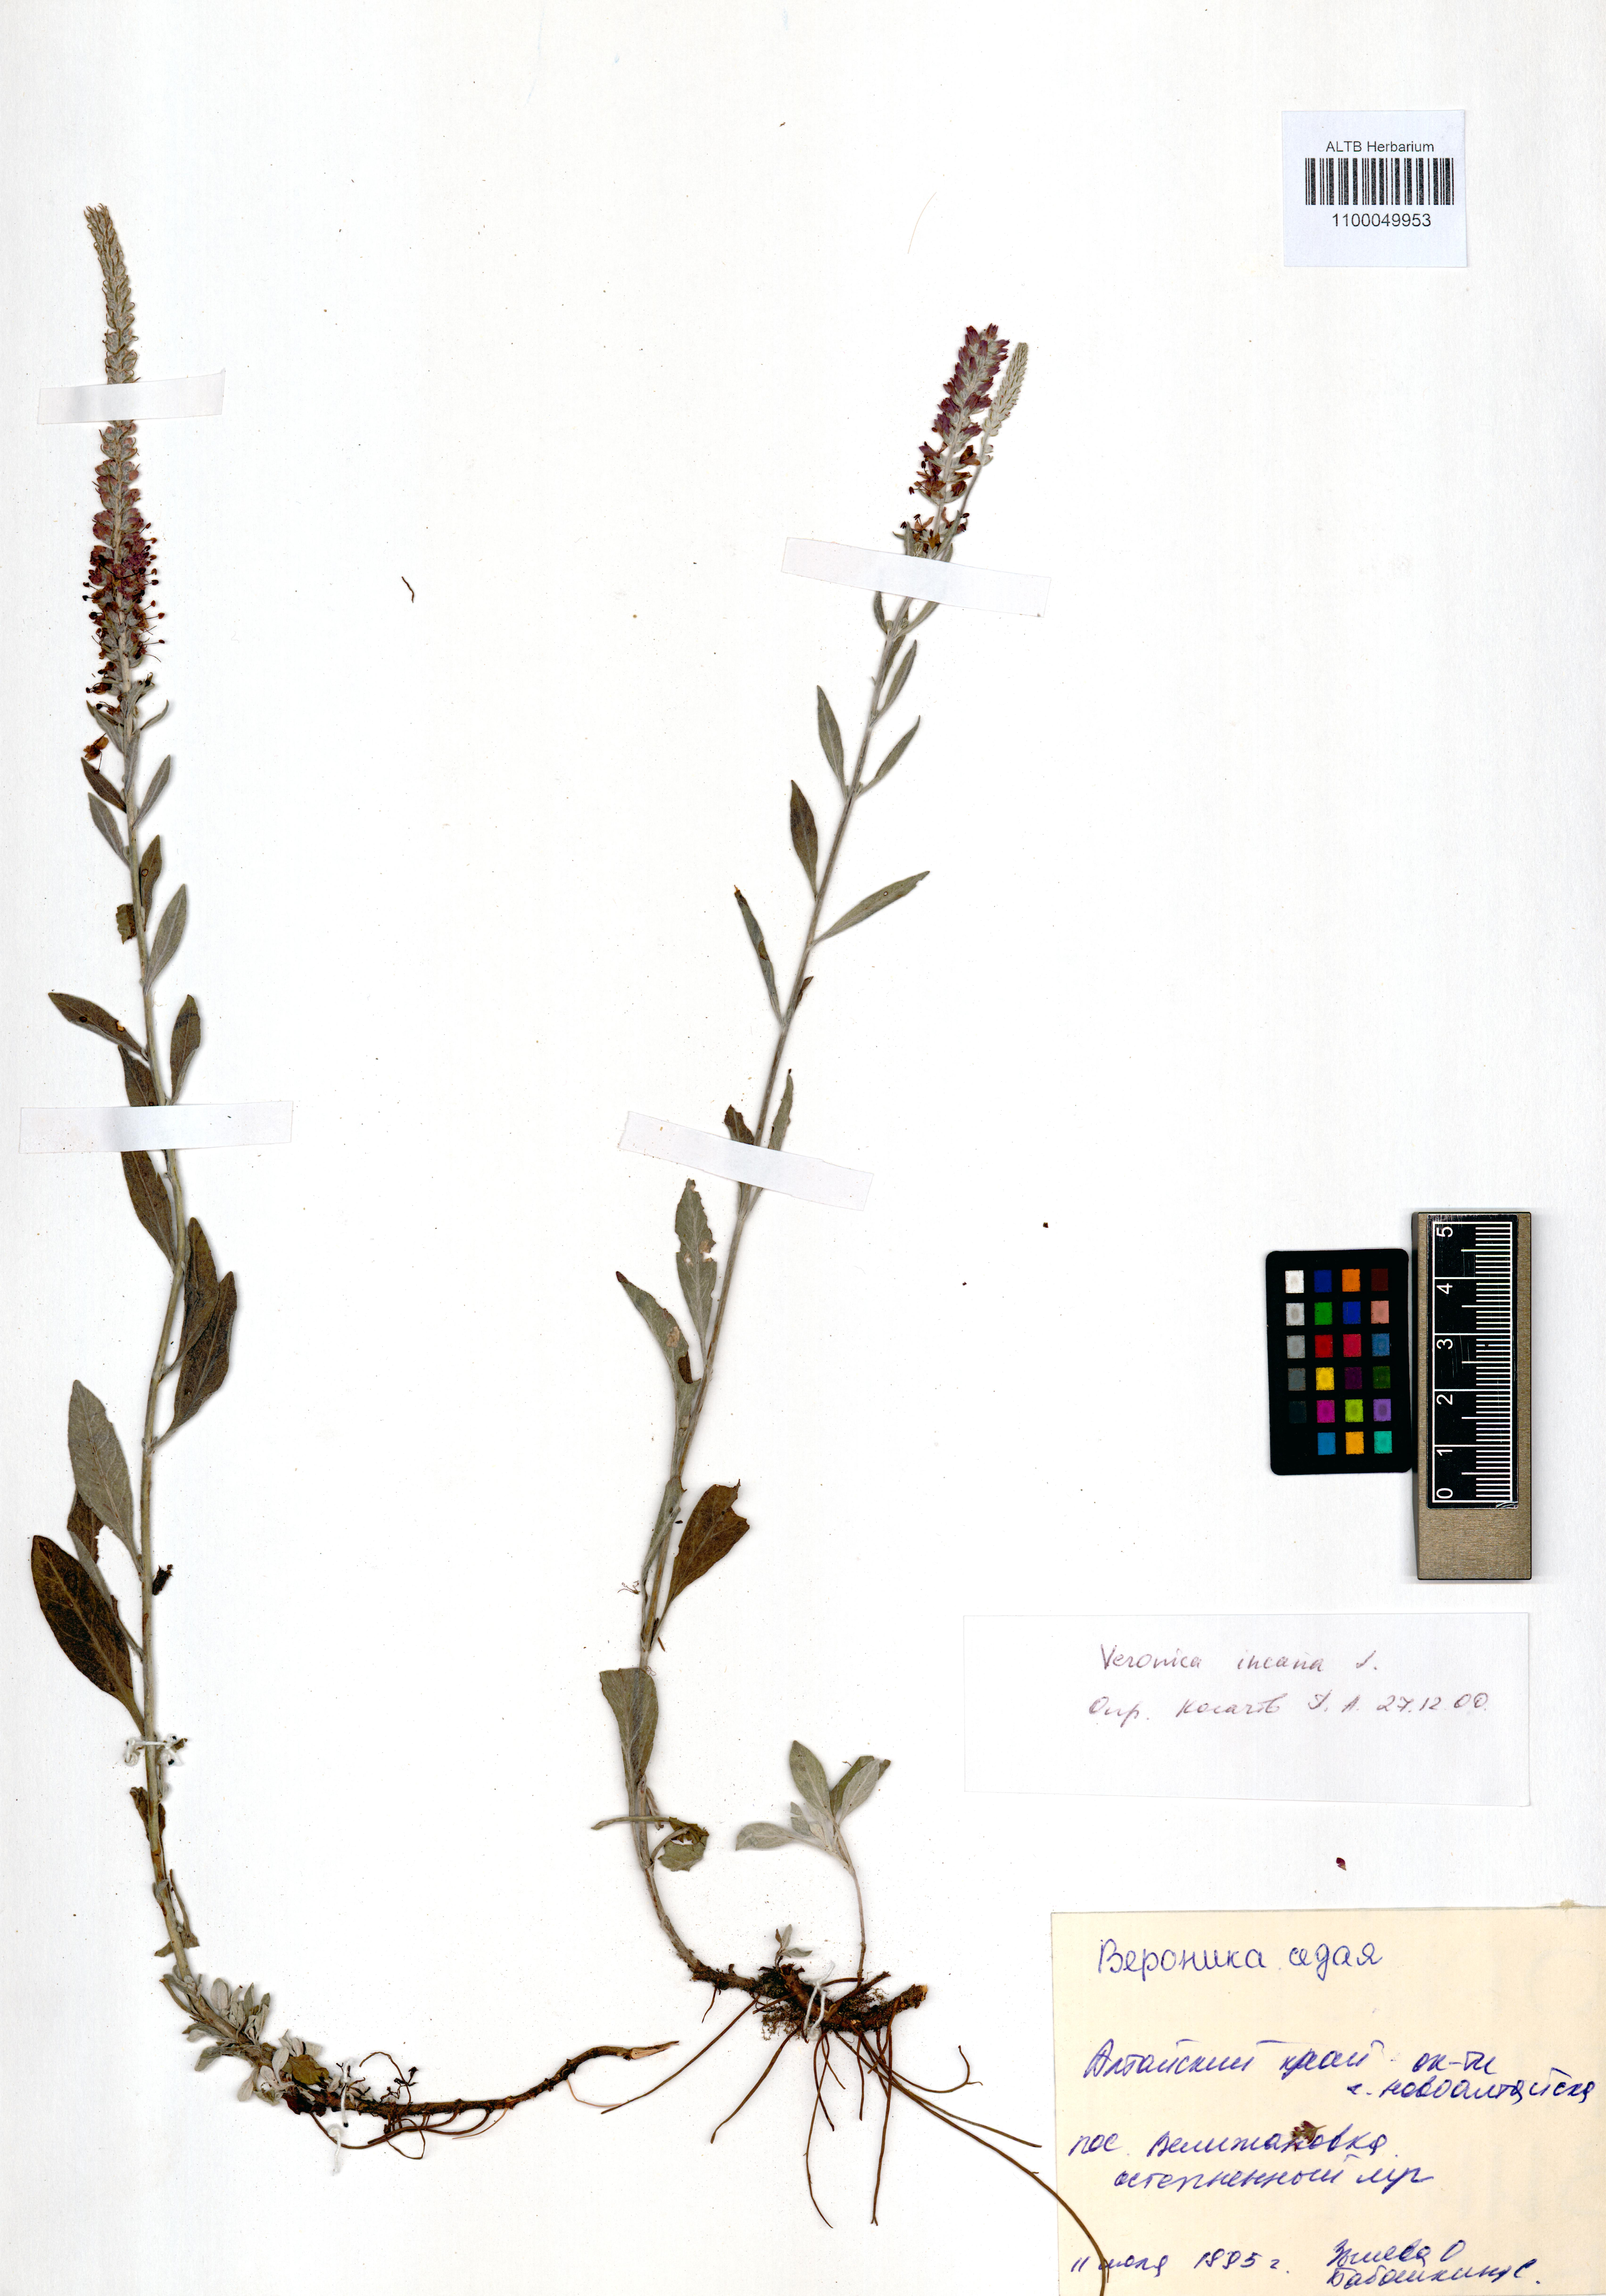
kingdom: Plantae
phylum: Tracheophyta
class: Magnoliopsida
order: Lamiales
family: Plantaginaceae
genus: Veronica
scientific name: Veronica incana
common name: Silver speedwell
